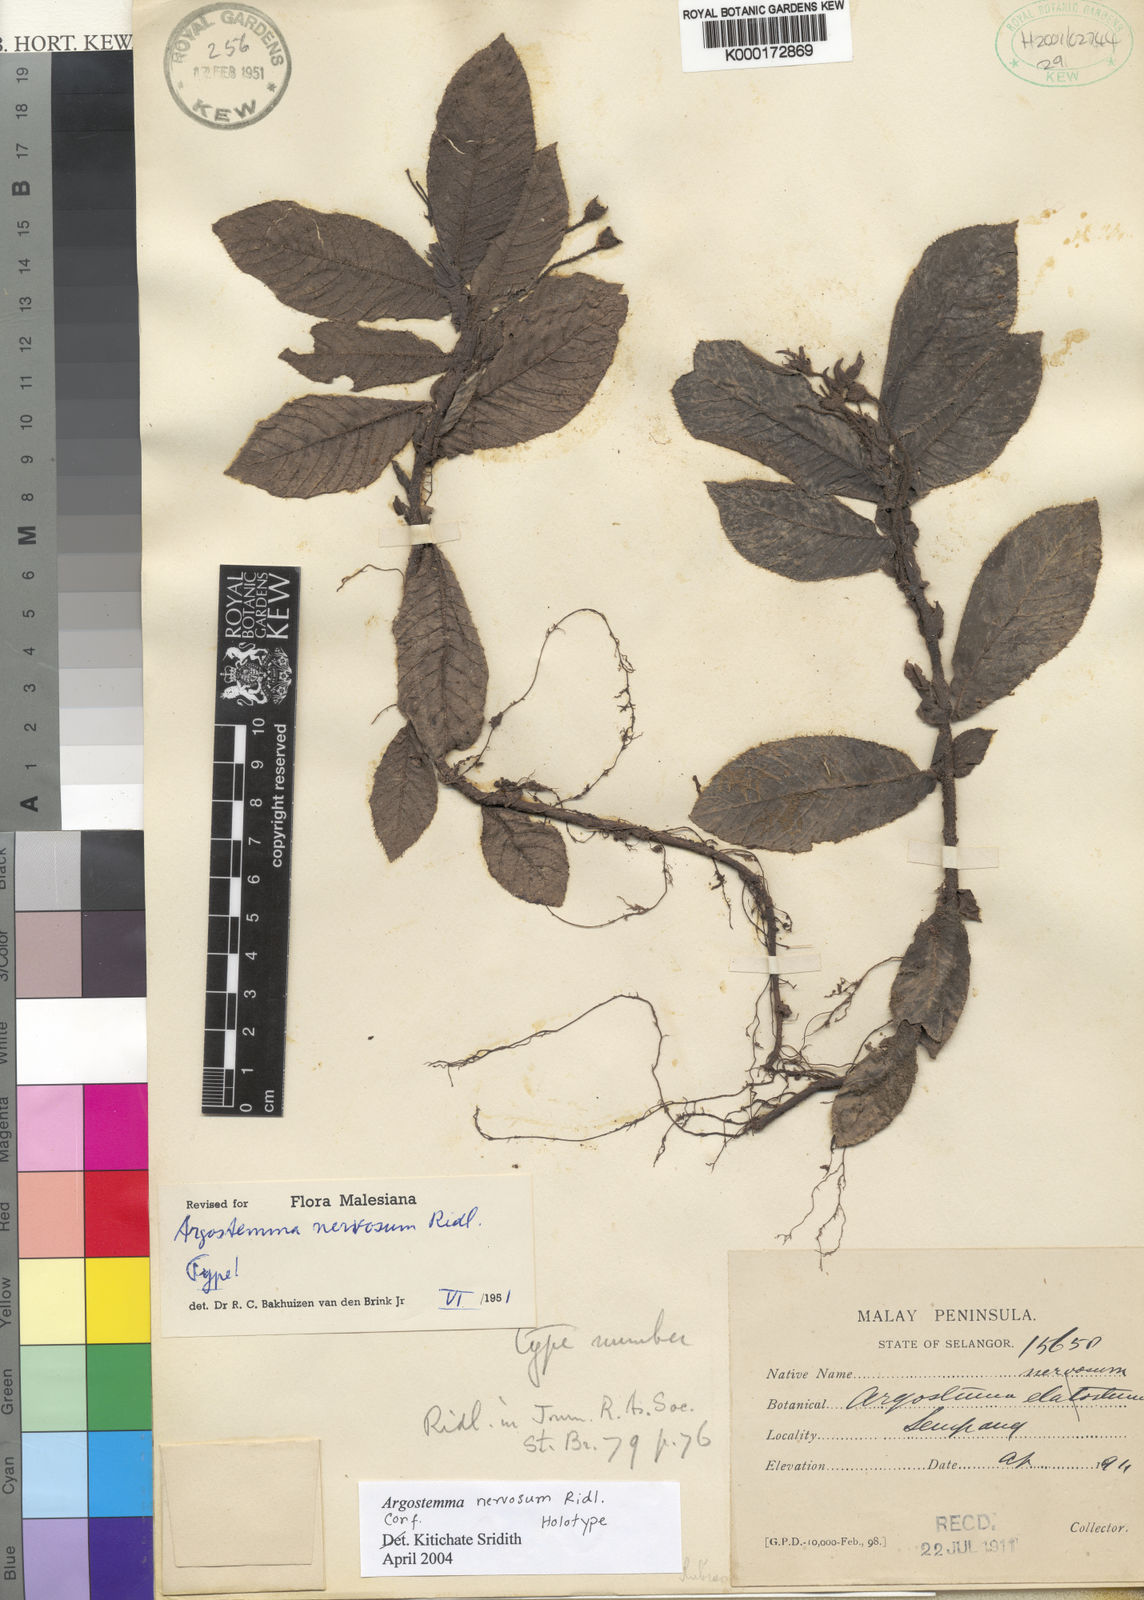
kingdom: Plantae
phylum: Tracheophyta
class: Magnoliopsida
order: Gentianales
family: Rubiaceae
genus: Argostemma
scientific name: Argostemma nervosum
